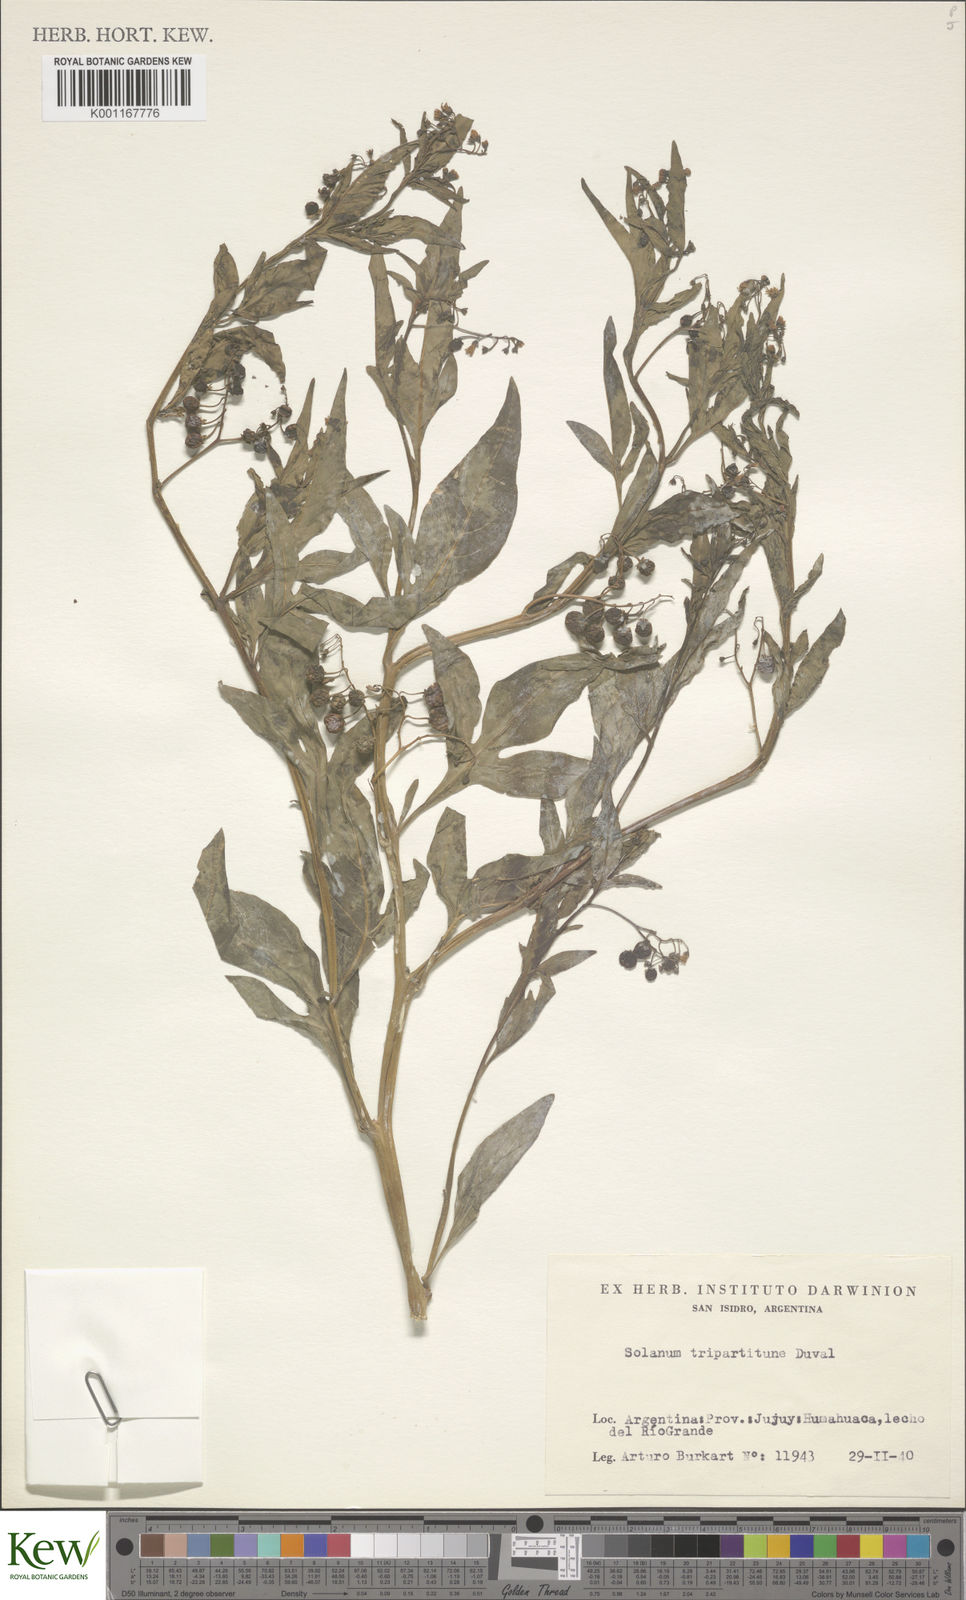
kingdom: Plantae
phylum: Tracheophyta
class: Magnoliopsida
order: Solanales
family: Solanaceae
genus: Solanum
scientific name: Solanum tripartitum
